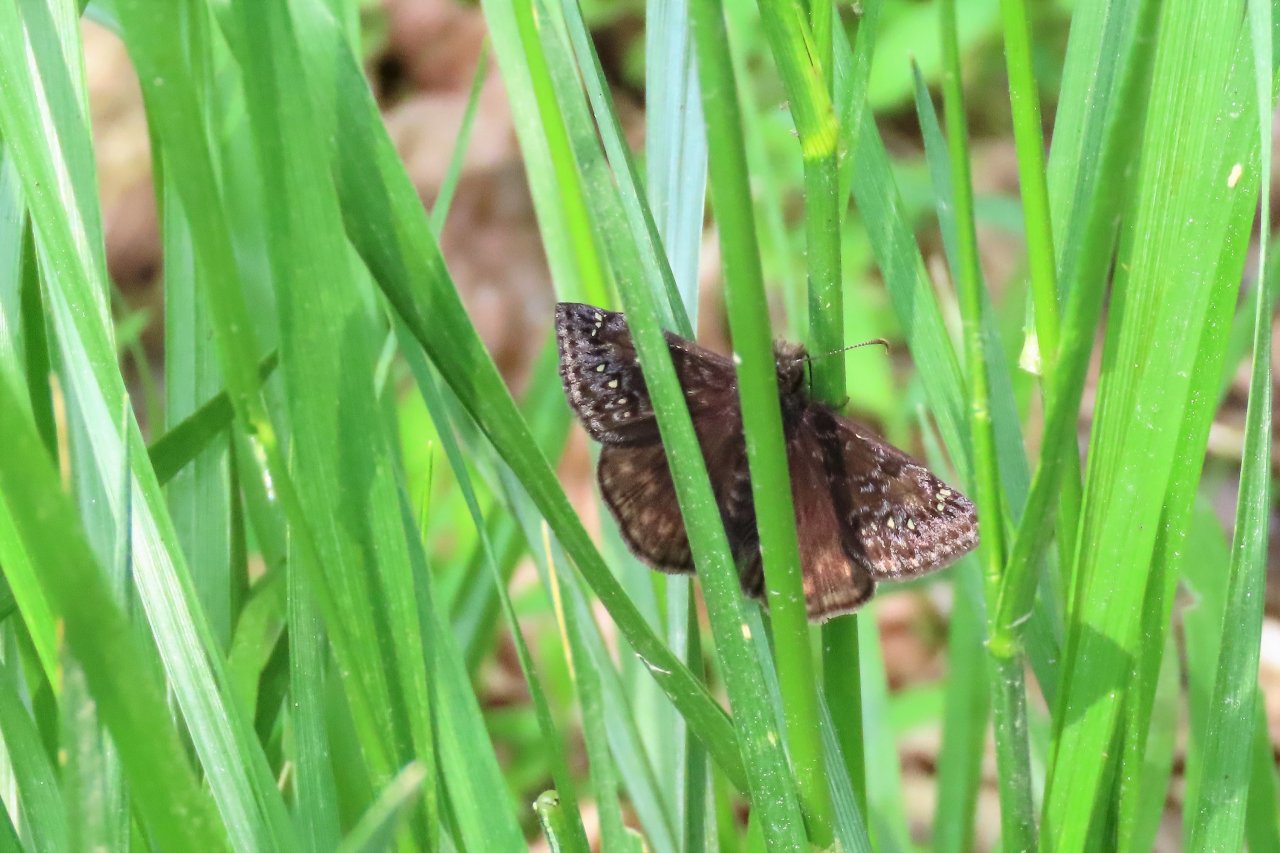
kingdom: Animalia
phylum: Arthropoda
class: Insecta
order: Lepidoptera
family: Hesperiidae
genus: Gesta
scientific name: Gesta
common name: Juvenal's Duskywing
